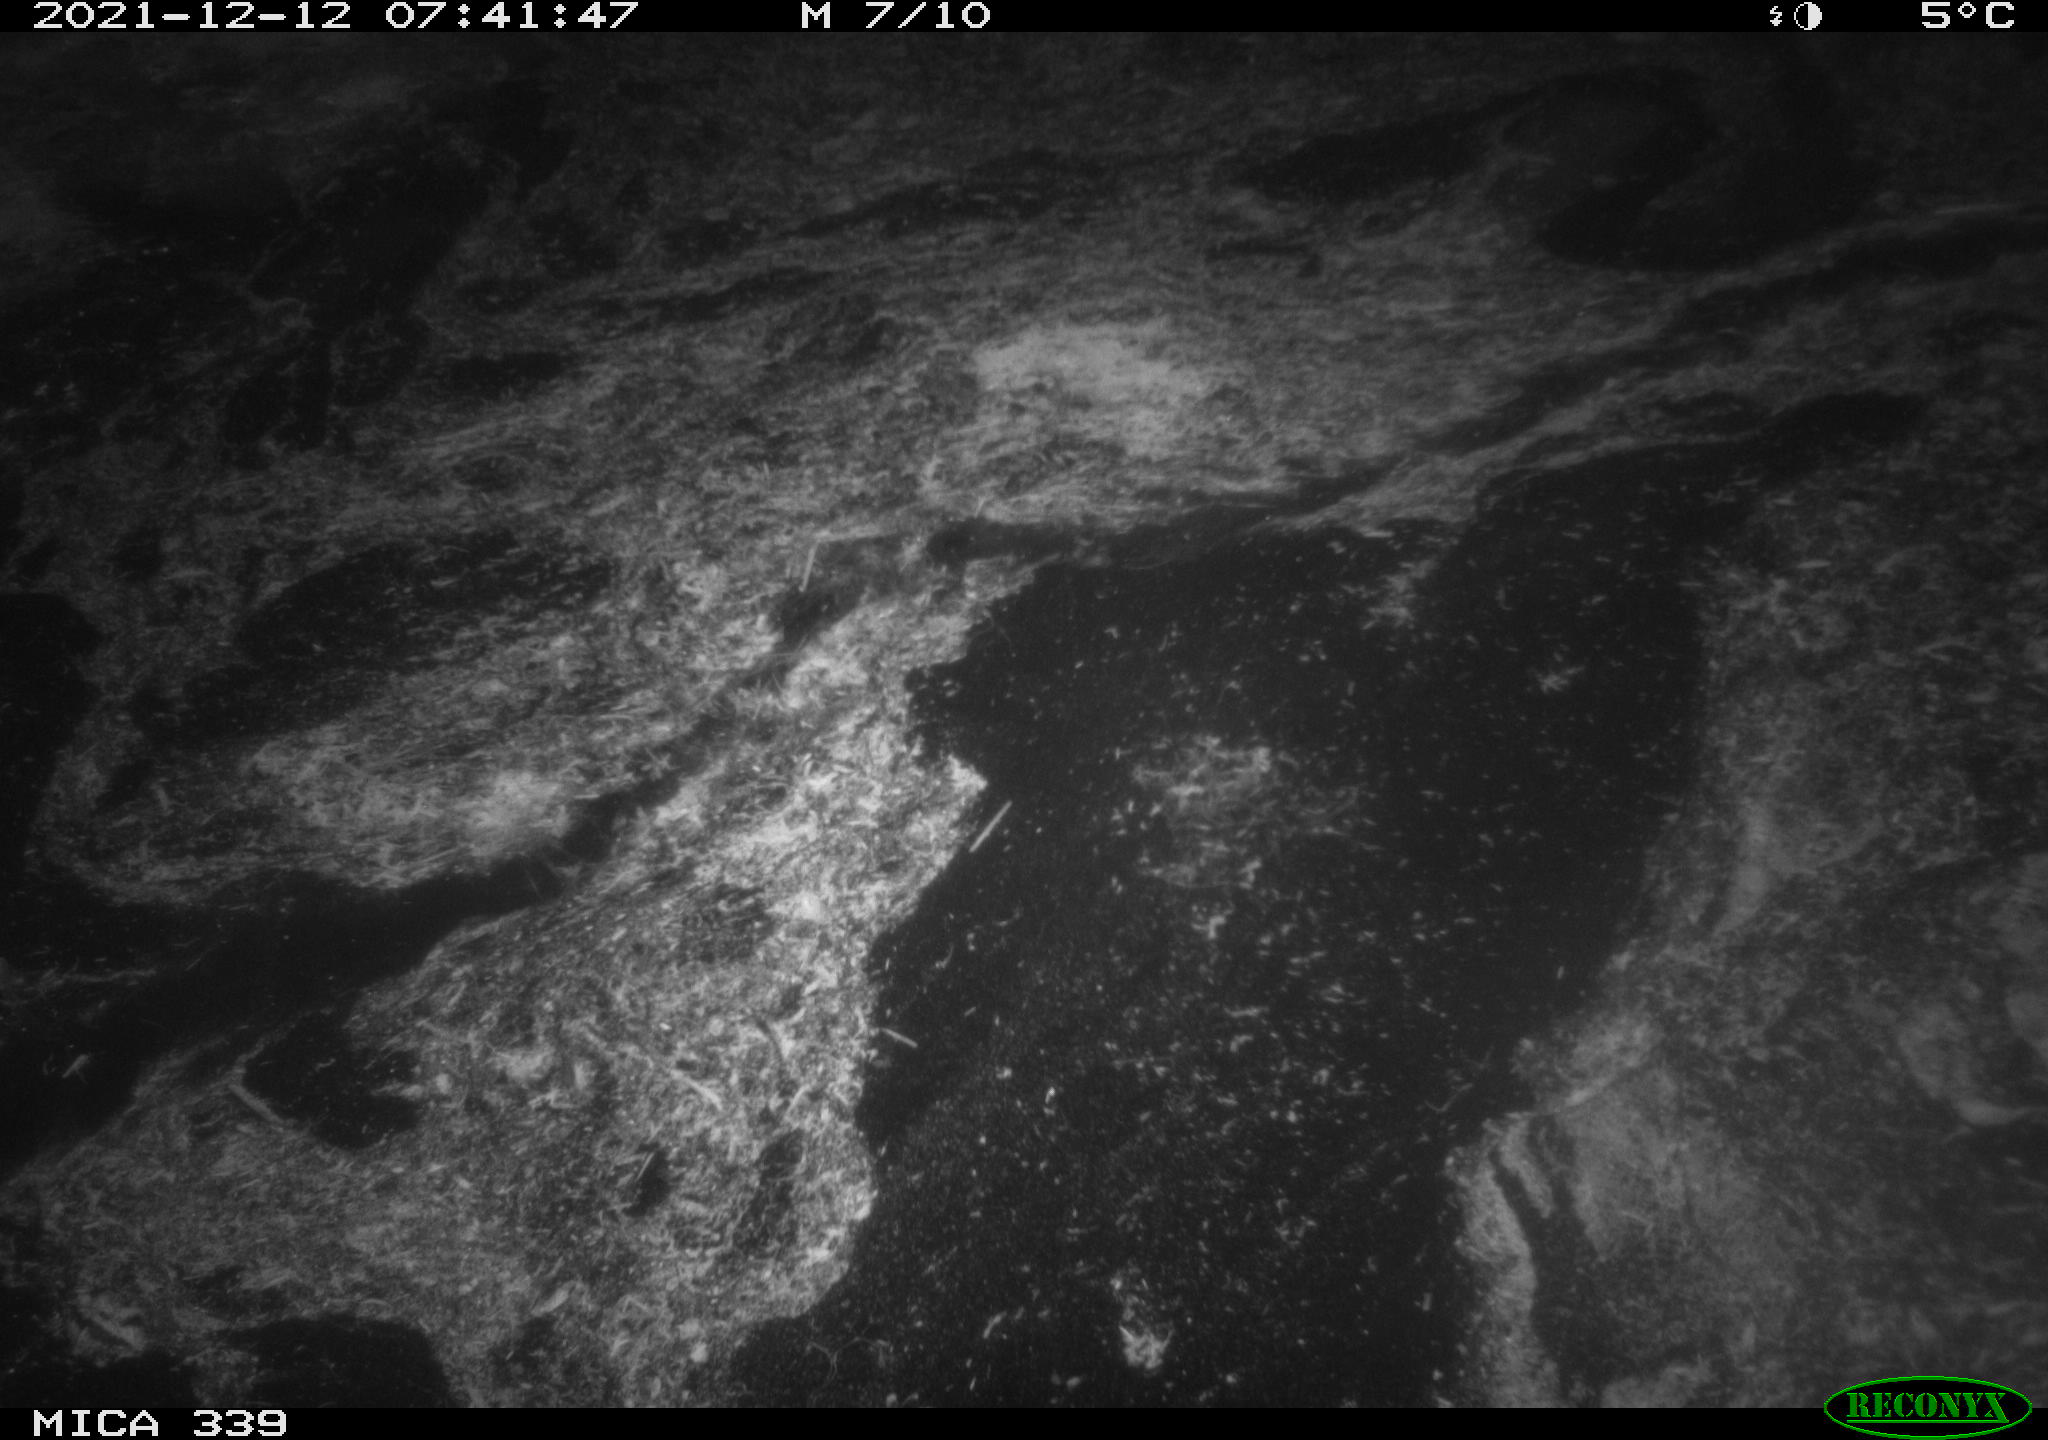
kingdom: Animalia
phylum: Chordata
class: Mammalia
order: Rodentia
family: Muridae
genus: Rattus
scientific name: Rattus norvegicus
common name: Brown rat
